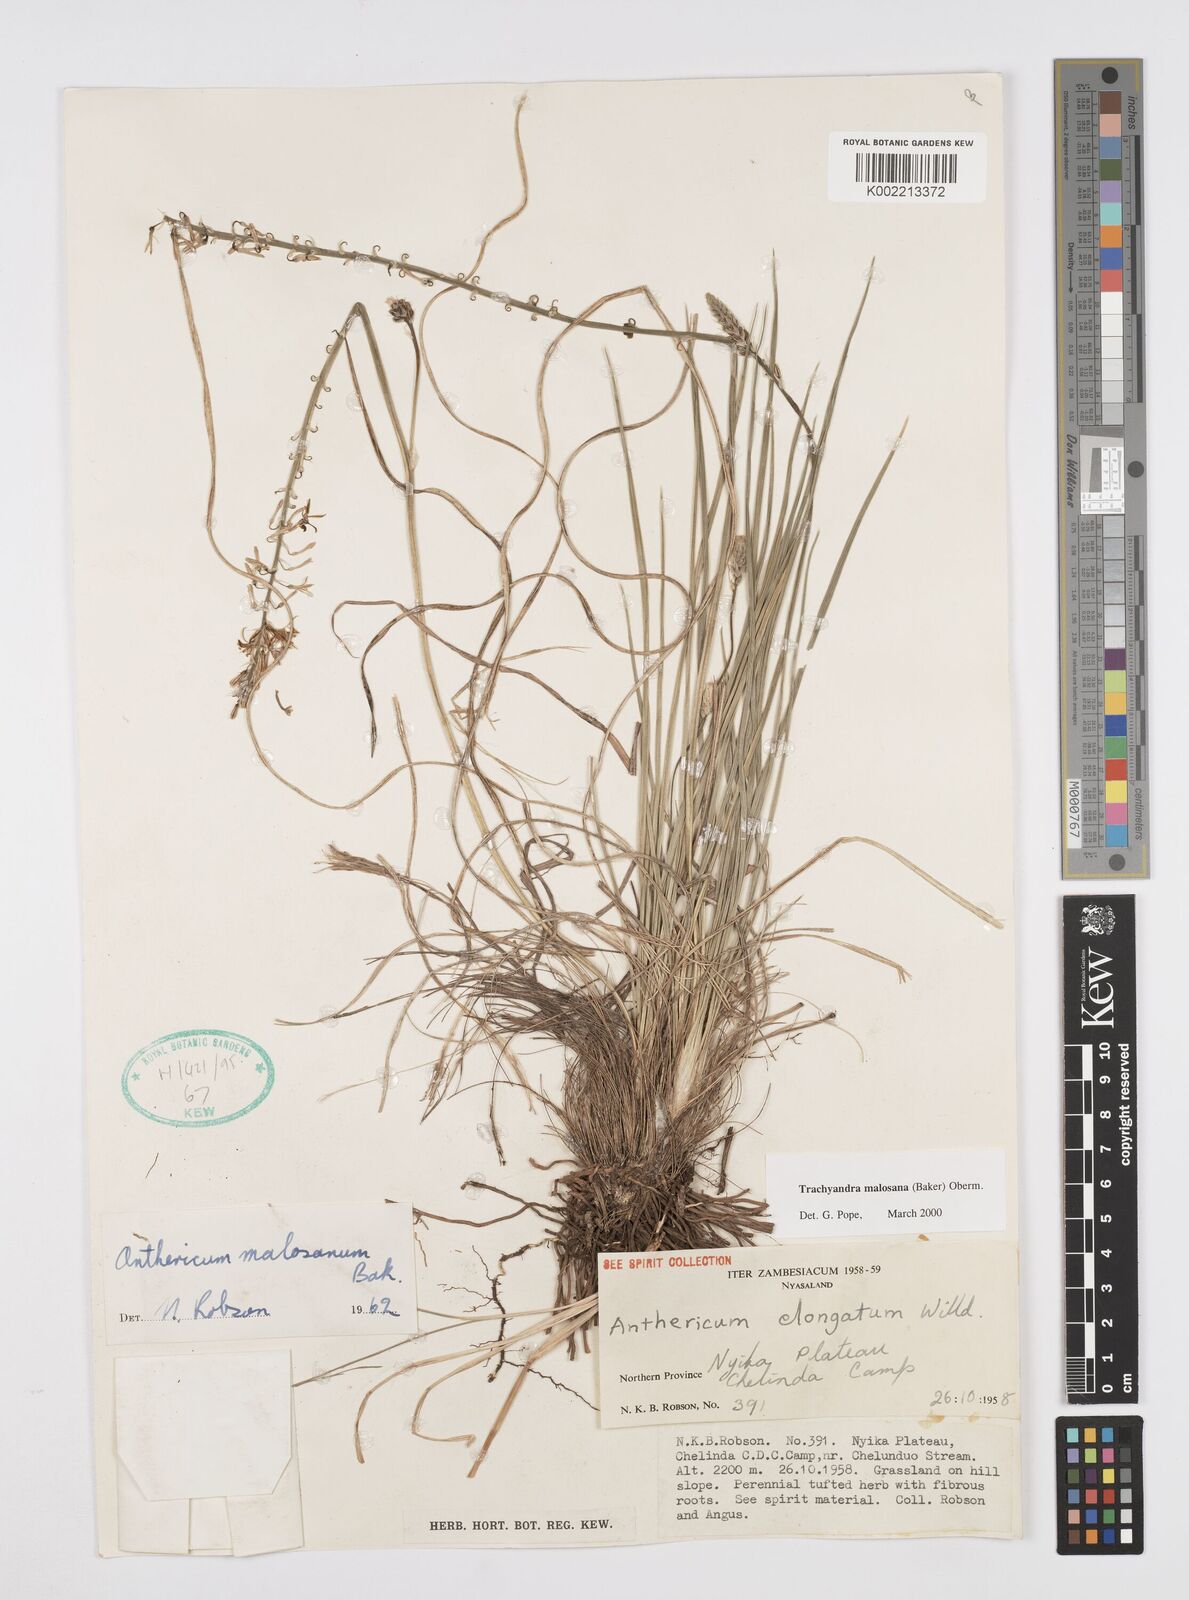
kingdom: Plantae
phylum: Tracheophyta
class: Liliopsida
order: Asparagales
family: Asphodelaceae
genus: Trachyandra
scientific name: Trachyandra malosana
